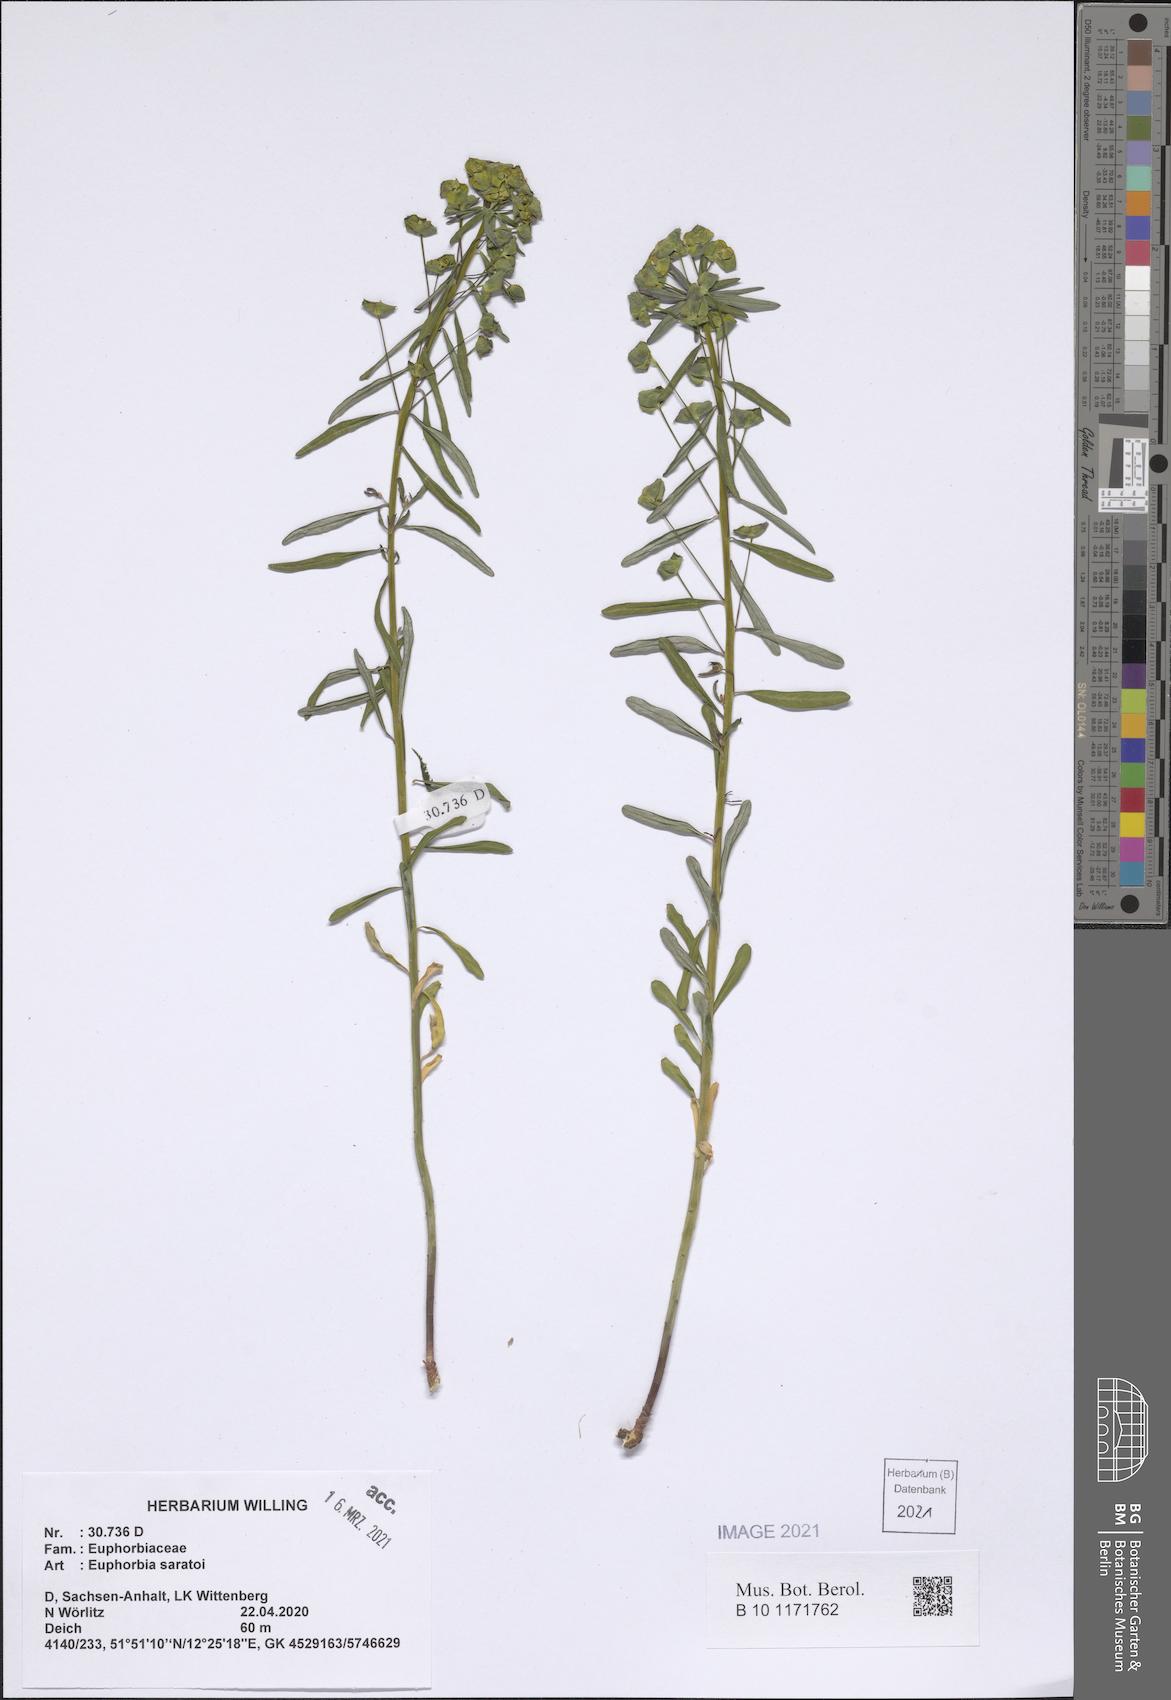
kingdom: Plantae
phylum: Tracheophyta
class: Magnoliopsida
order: Malpighiales
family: Euphorbiaceae
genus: Euphorbia
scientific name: Euphorbia esula
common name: Leafy spurge
